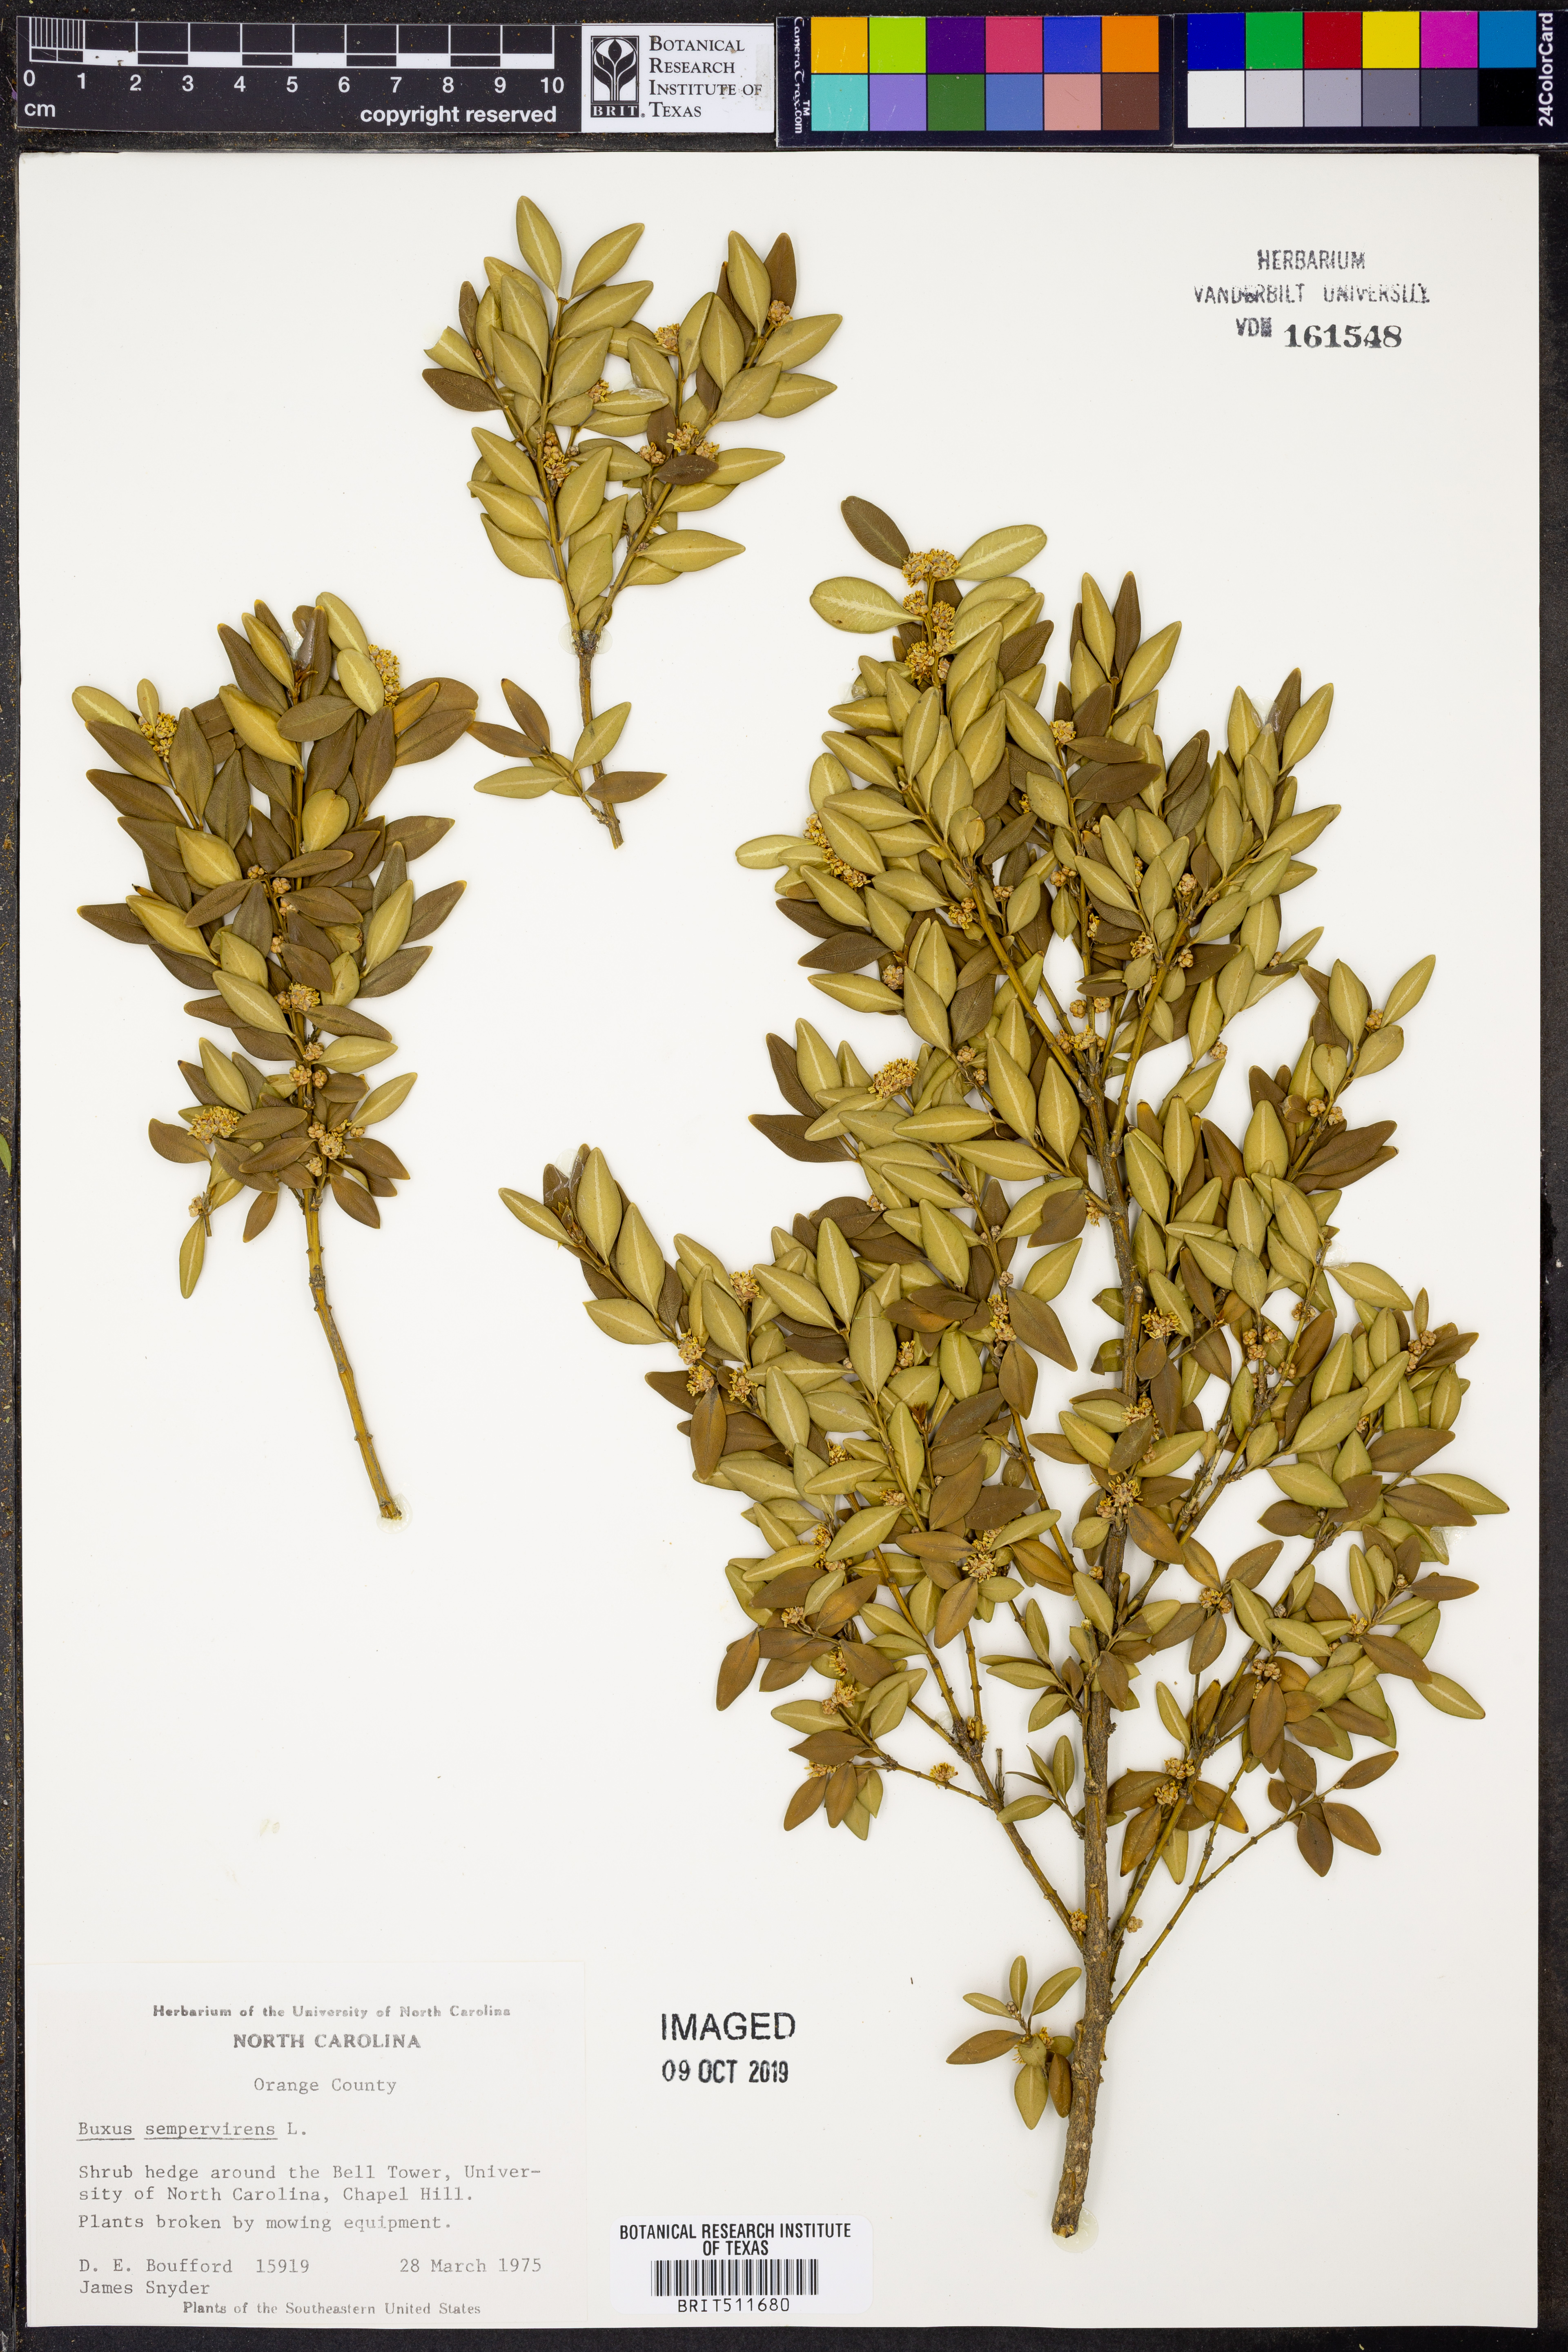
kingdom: Plantae
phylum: Tracheophyta
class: Magnoliopsida
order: Buxales
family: Buxaceae
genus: Buxus
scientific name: Buxus sempervirens
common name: Box
